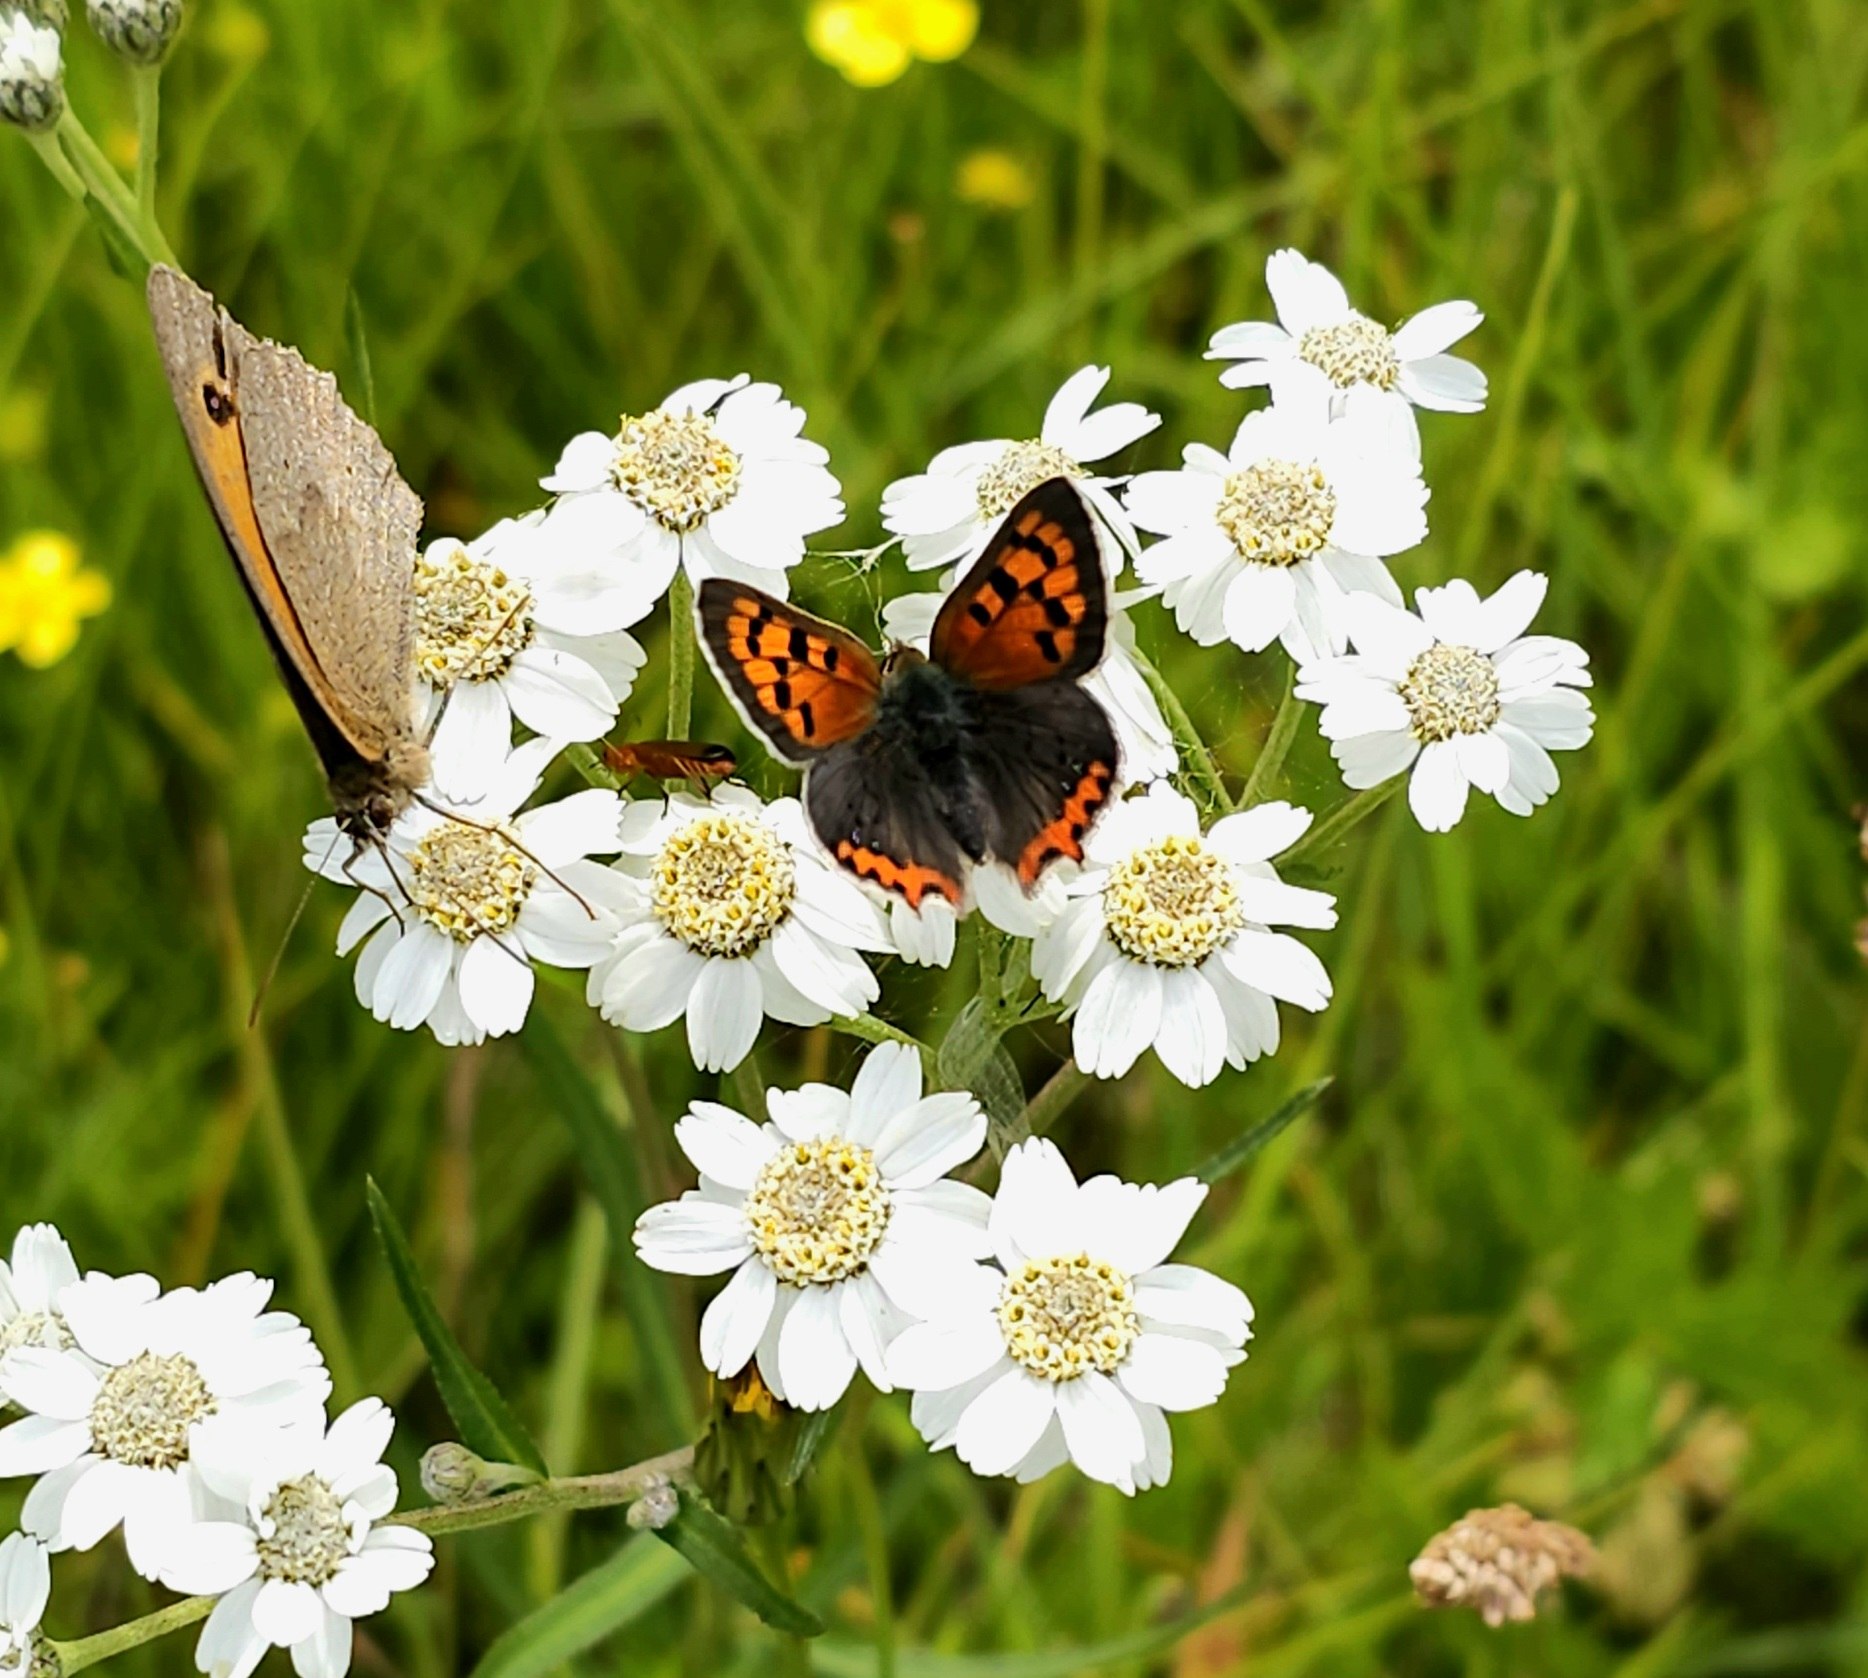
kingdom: Animalia
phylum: Arthropoda
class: Insecta
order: Lepidoptera
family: Lycaenidae
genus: Lycaena
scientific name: Lycaena phlaeas
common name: Lille ildfugl
